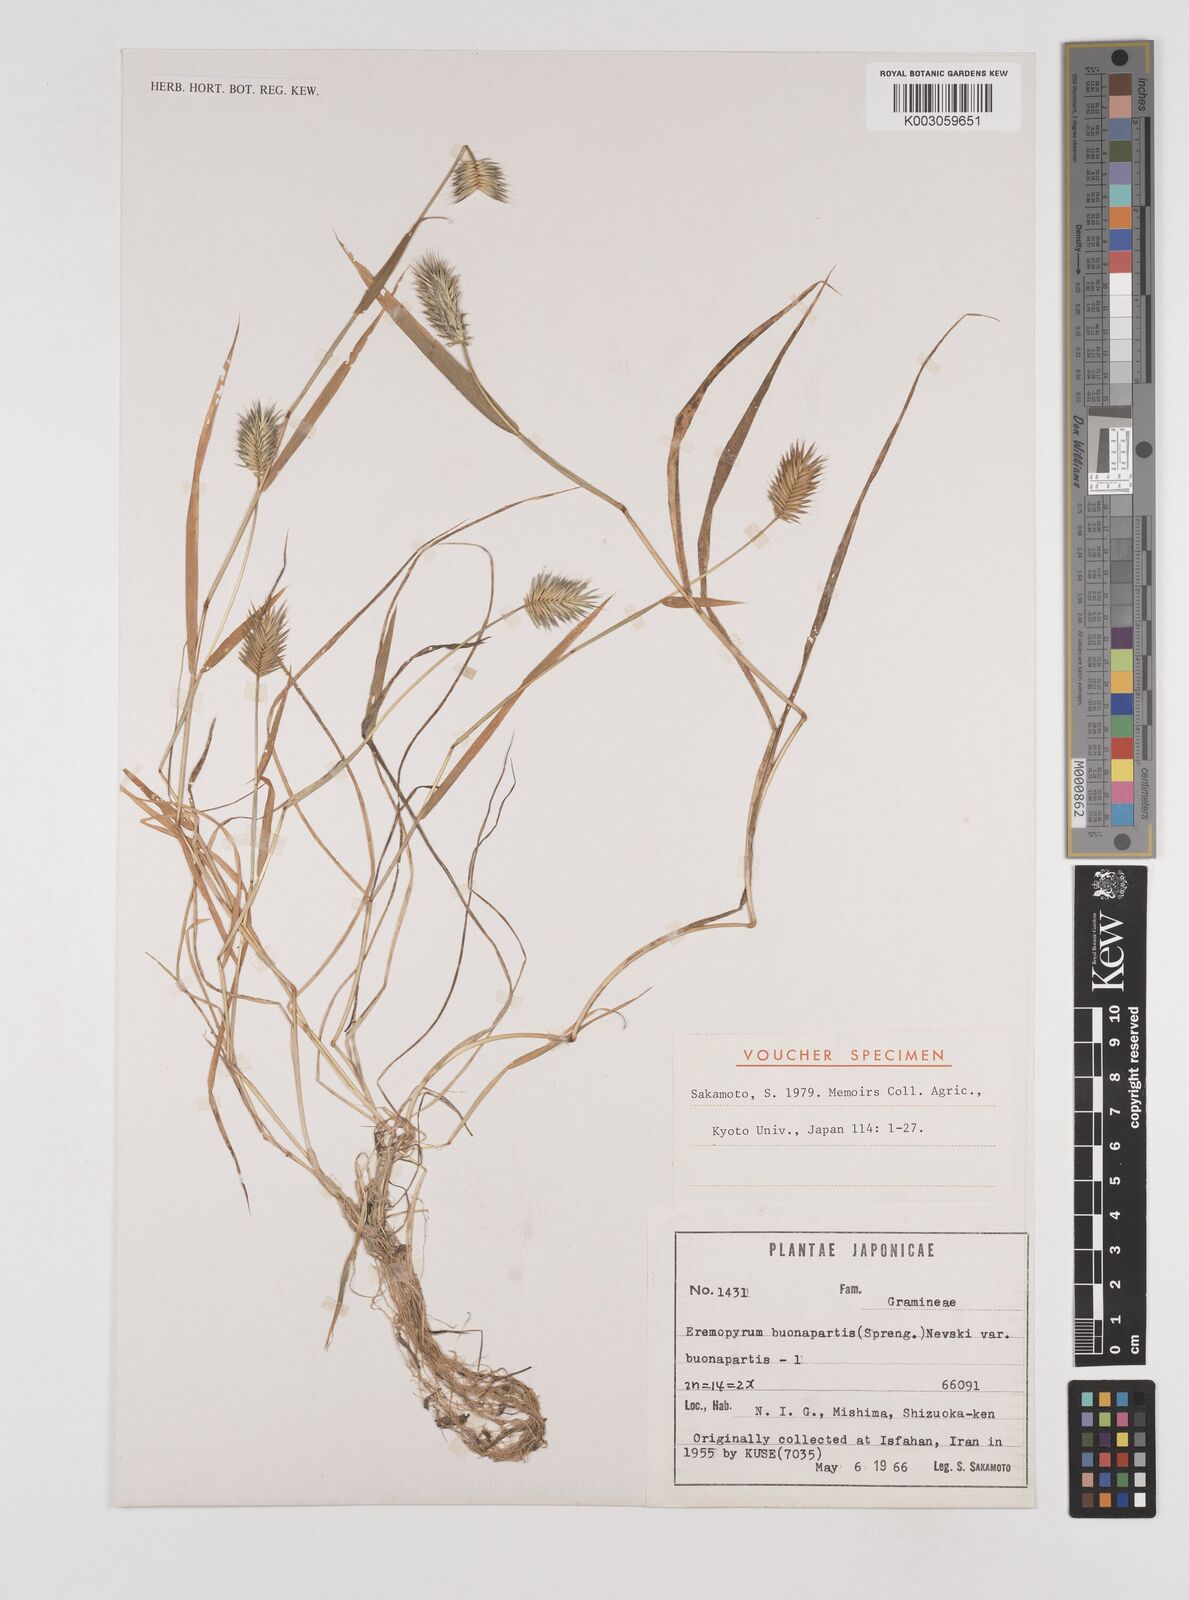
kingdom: Plantae
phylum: Tracheophyta
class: Liliopsida
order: Poales
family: Poaceae
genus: Eremopyrum
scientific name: Eremopyrum bonaepartis
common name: Tapertip false wheatgrass
